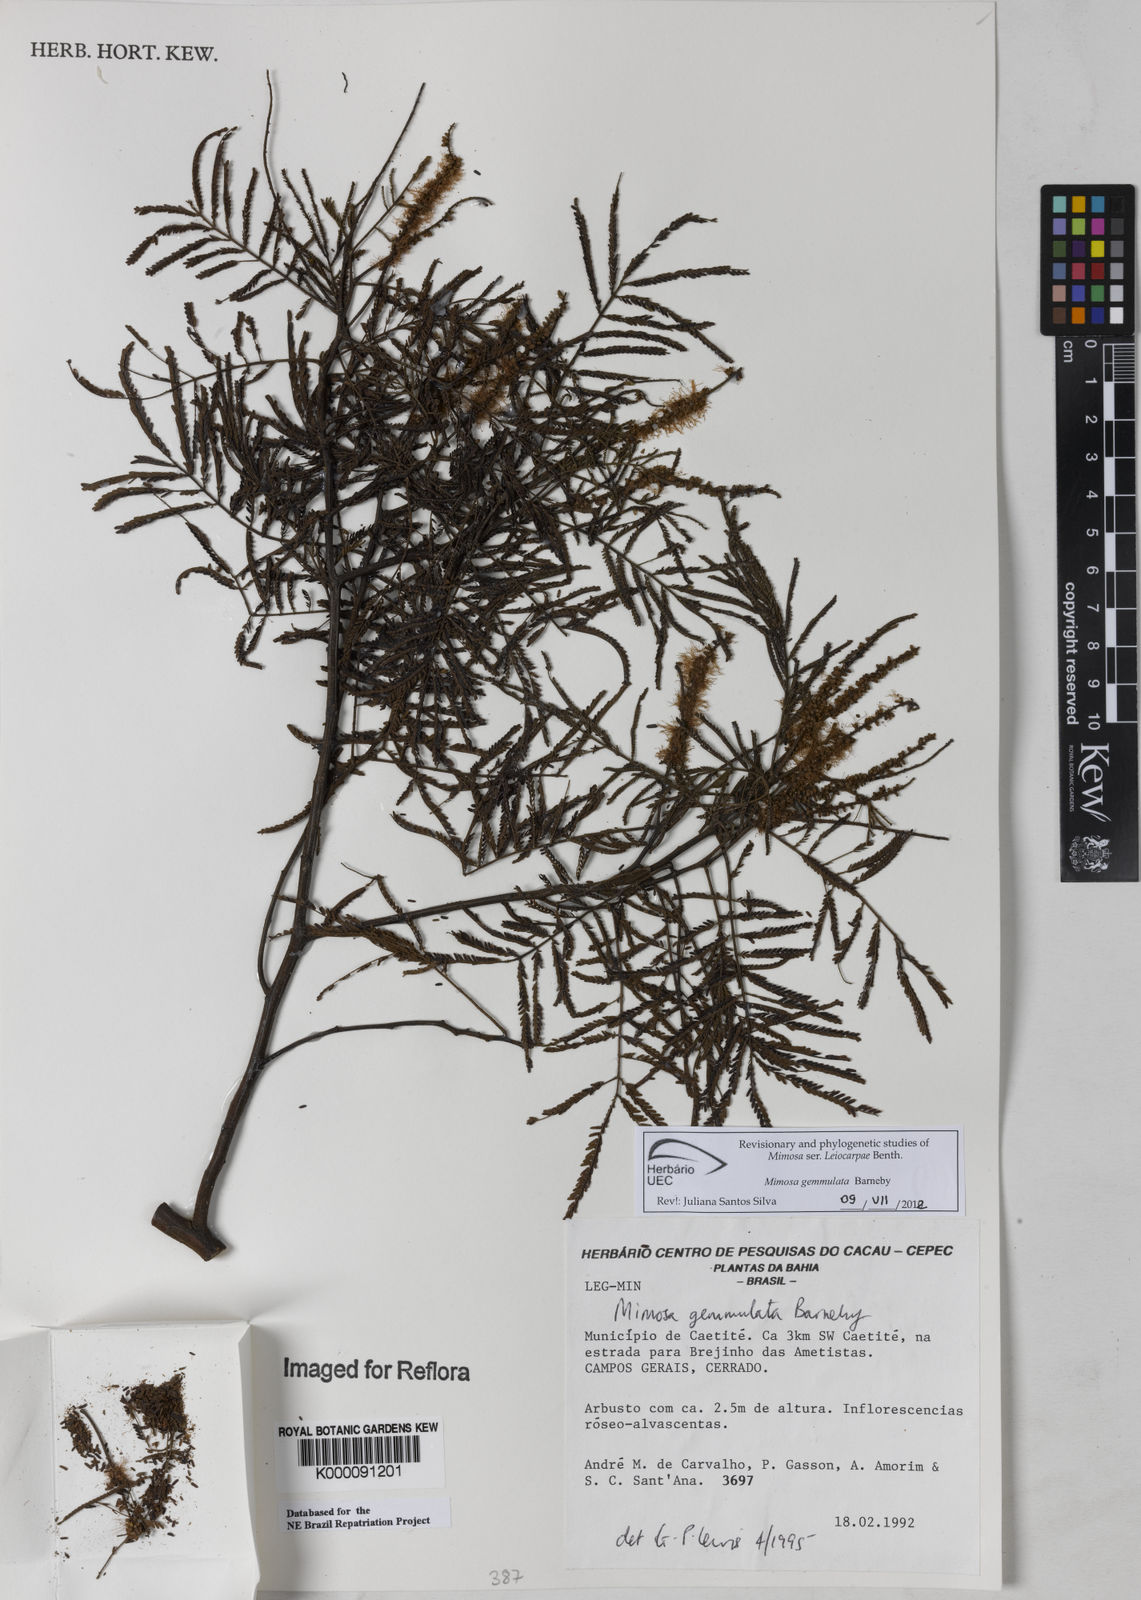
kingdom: Plantae
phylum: Tracheophyta
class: Magnoliopsida
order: Fabales
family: Fabaceae
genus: Mimosa
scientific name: Mimosa gemmulata
